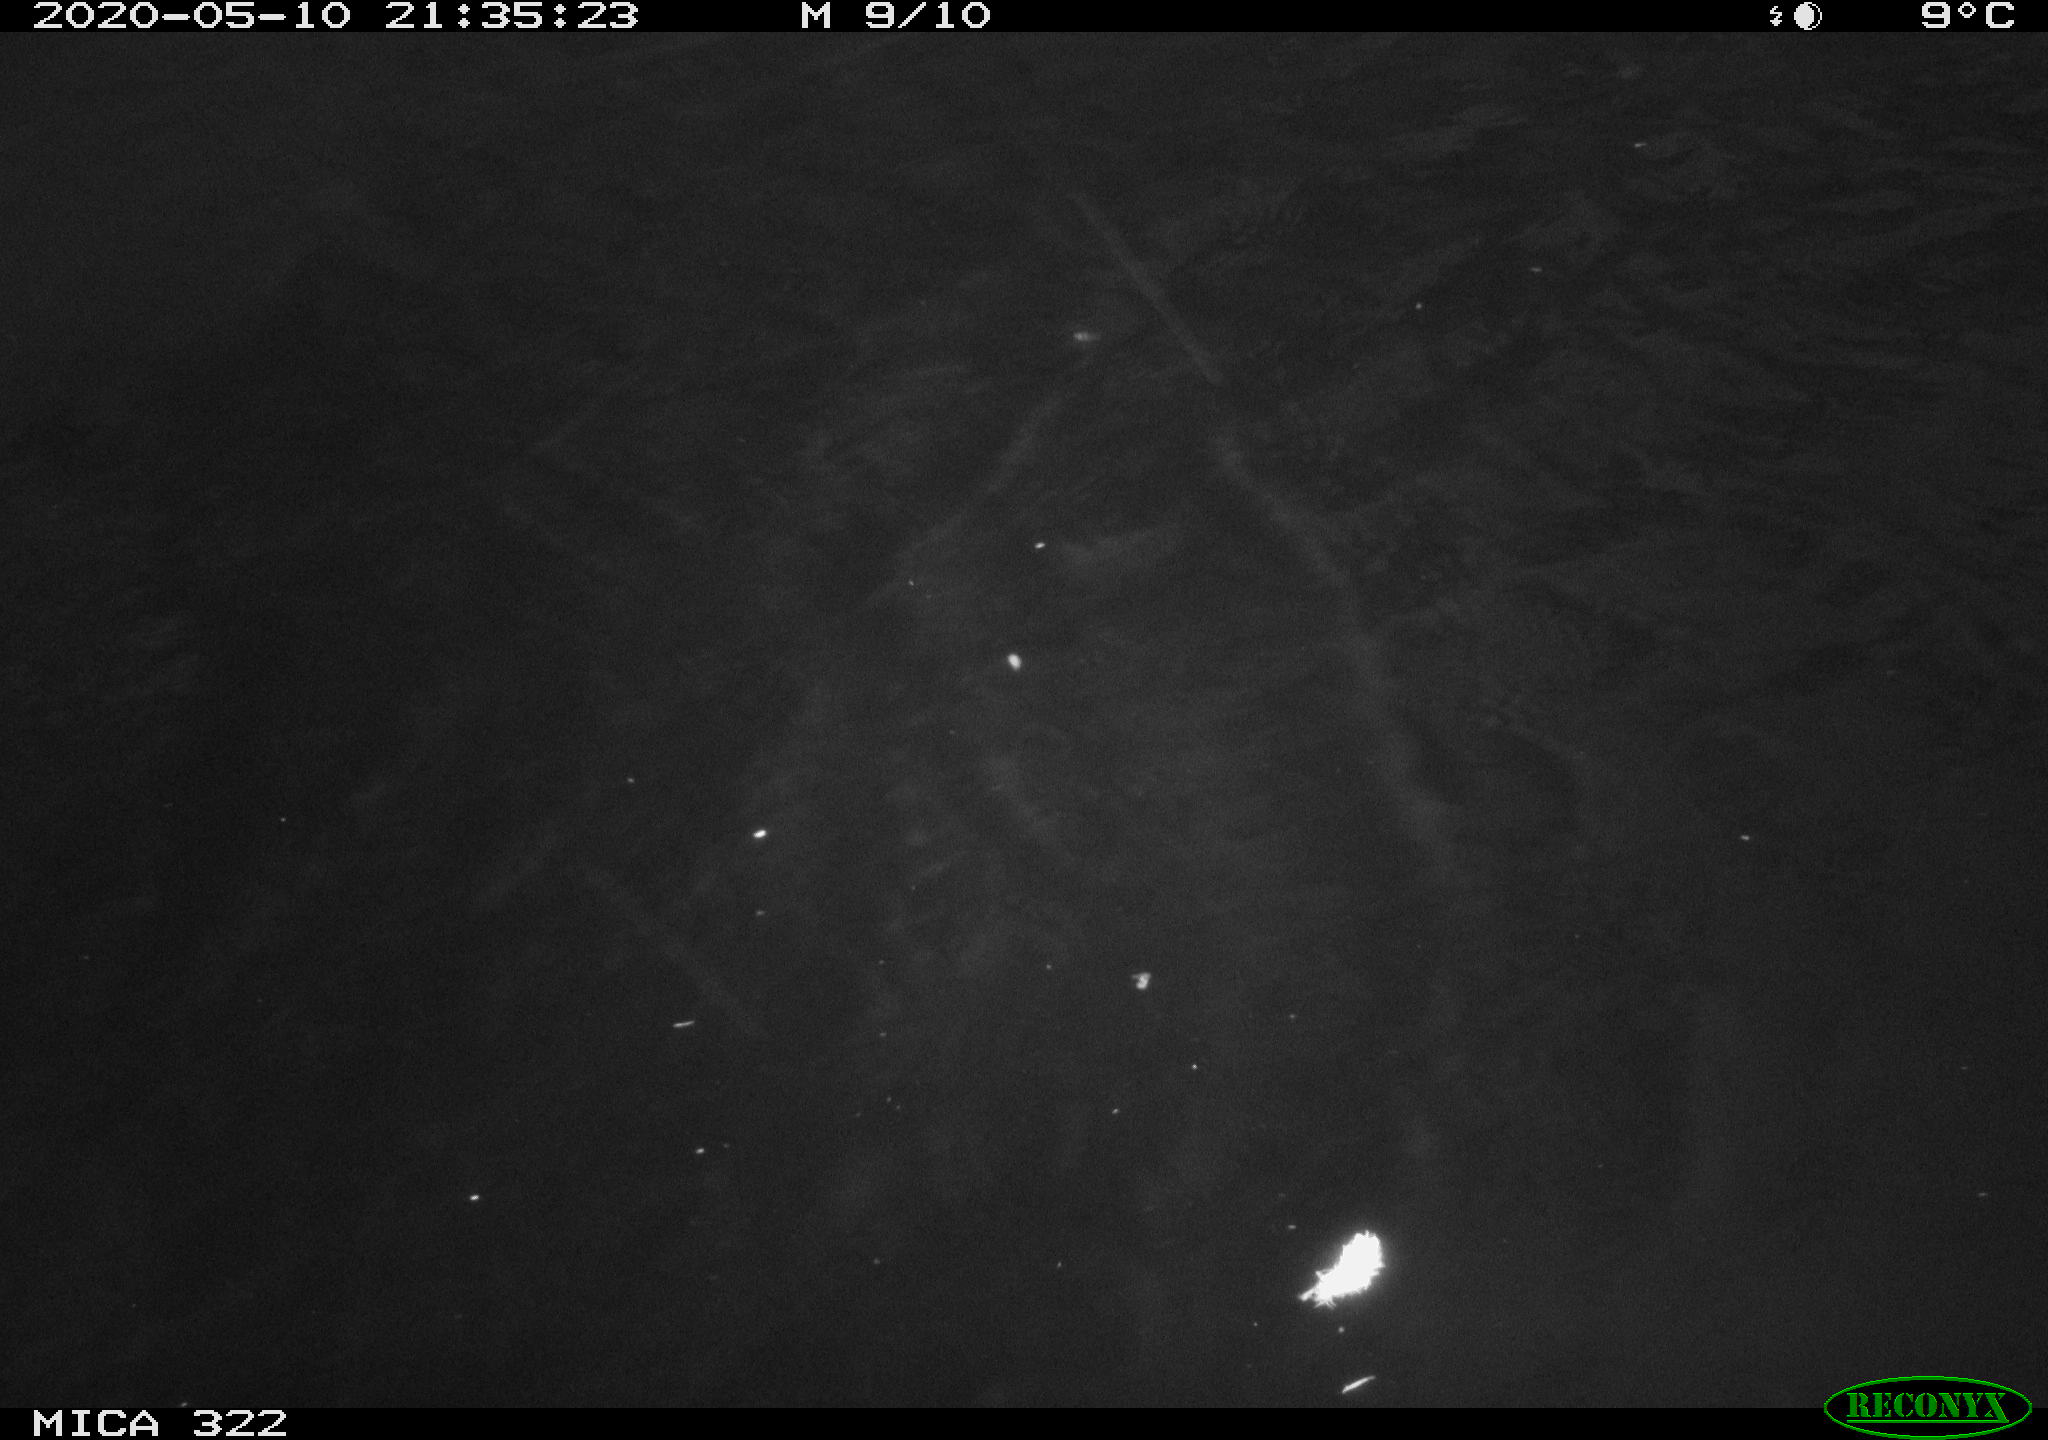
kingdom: Animalia
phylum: Chordata
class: Aves
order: Gruiformes
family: Rallidae
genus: Fulica
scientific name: Fulica atra
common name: Eurasian coot
